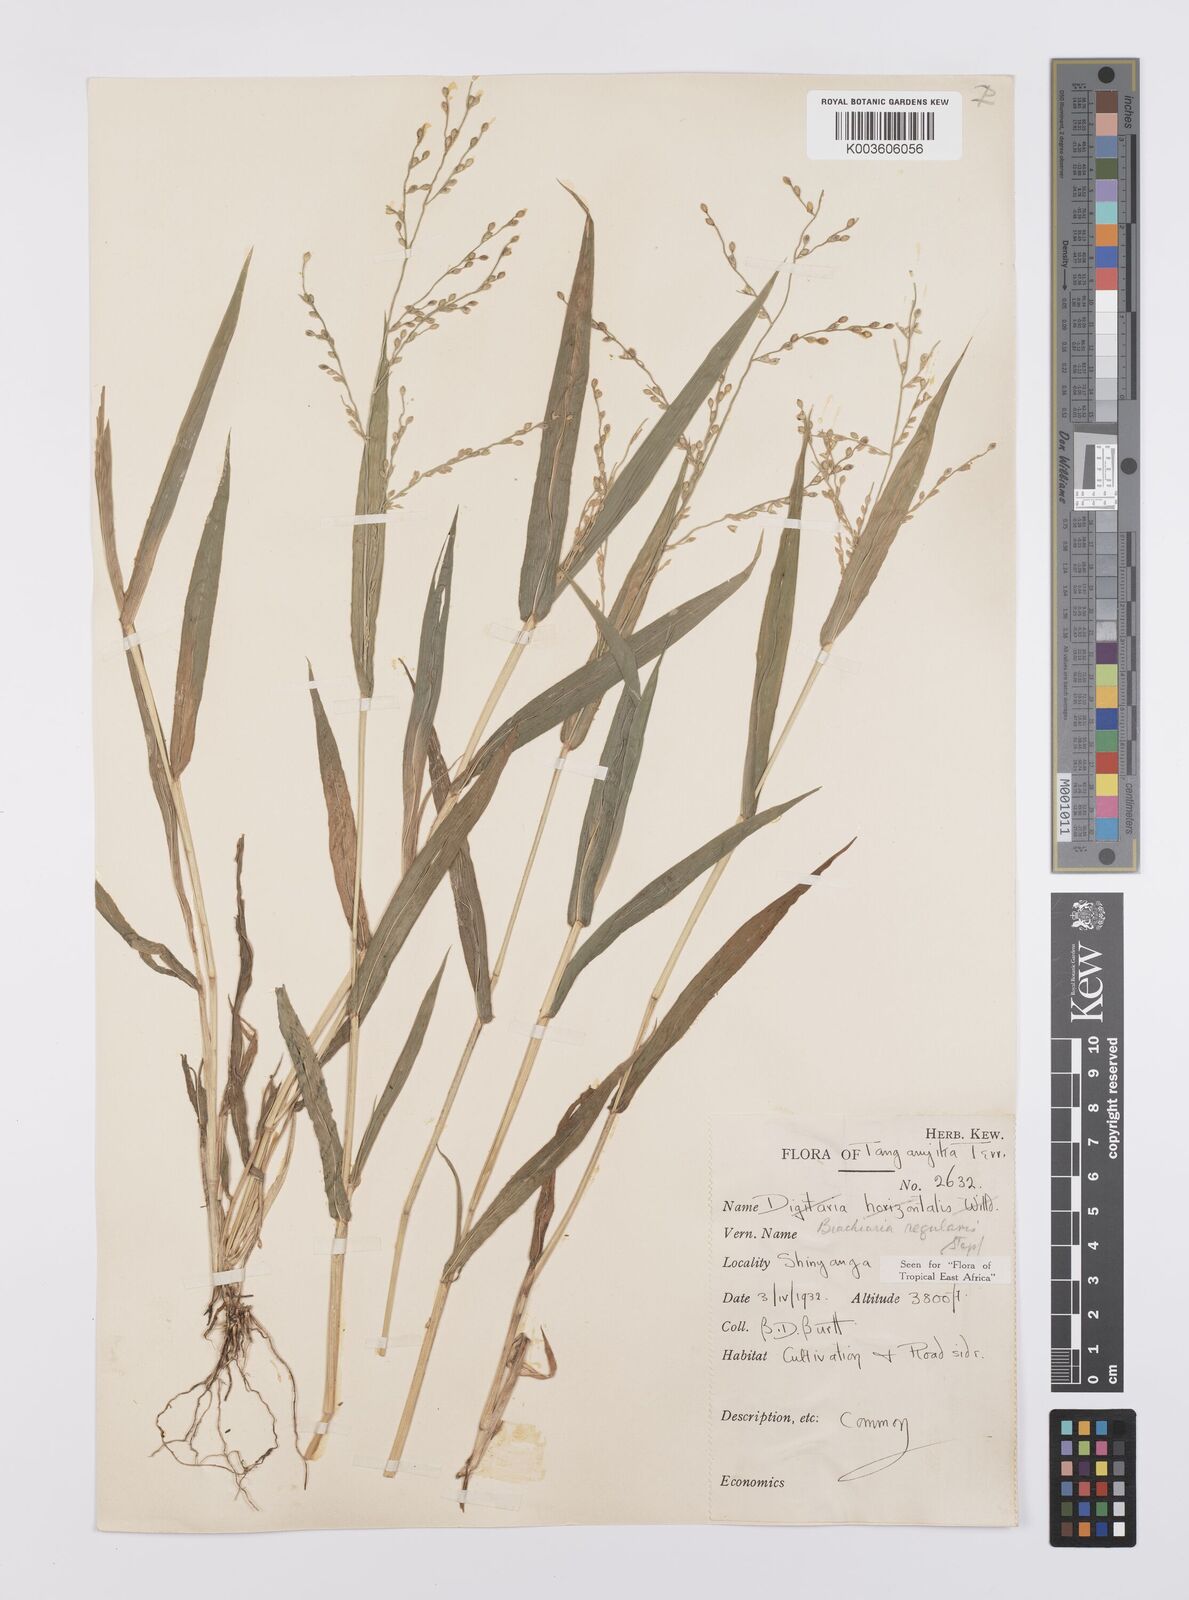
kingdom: Plantae
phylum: Tracheophyta
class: Liliopsida
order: Poales
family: Poaceae
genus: Urochloa
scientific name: Urochloa deflexa
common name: Guinea millet
